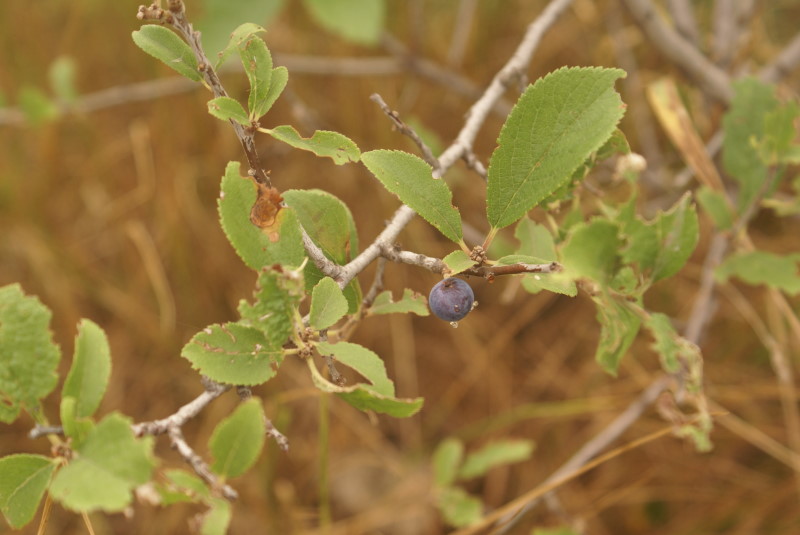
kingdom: Plantae
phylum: Tracheophyta
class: Magnoliopsida
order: Rosales
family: Rosaceae
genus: Prunus
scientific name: Prunus spinosa
